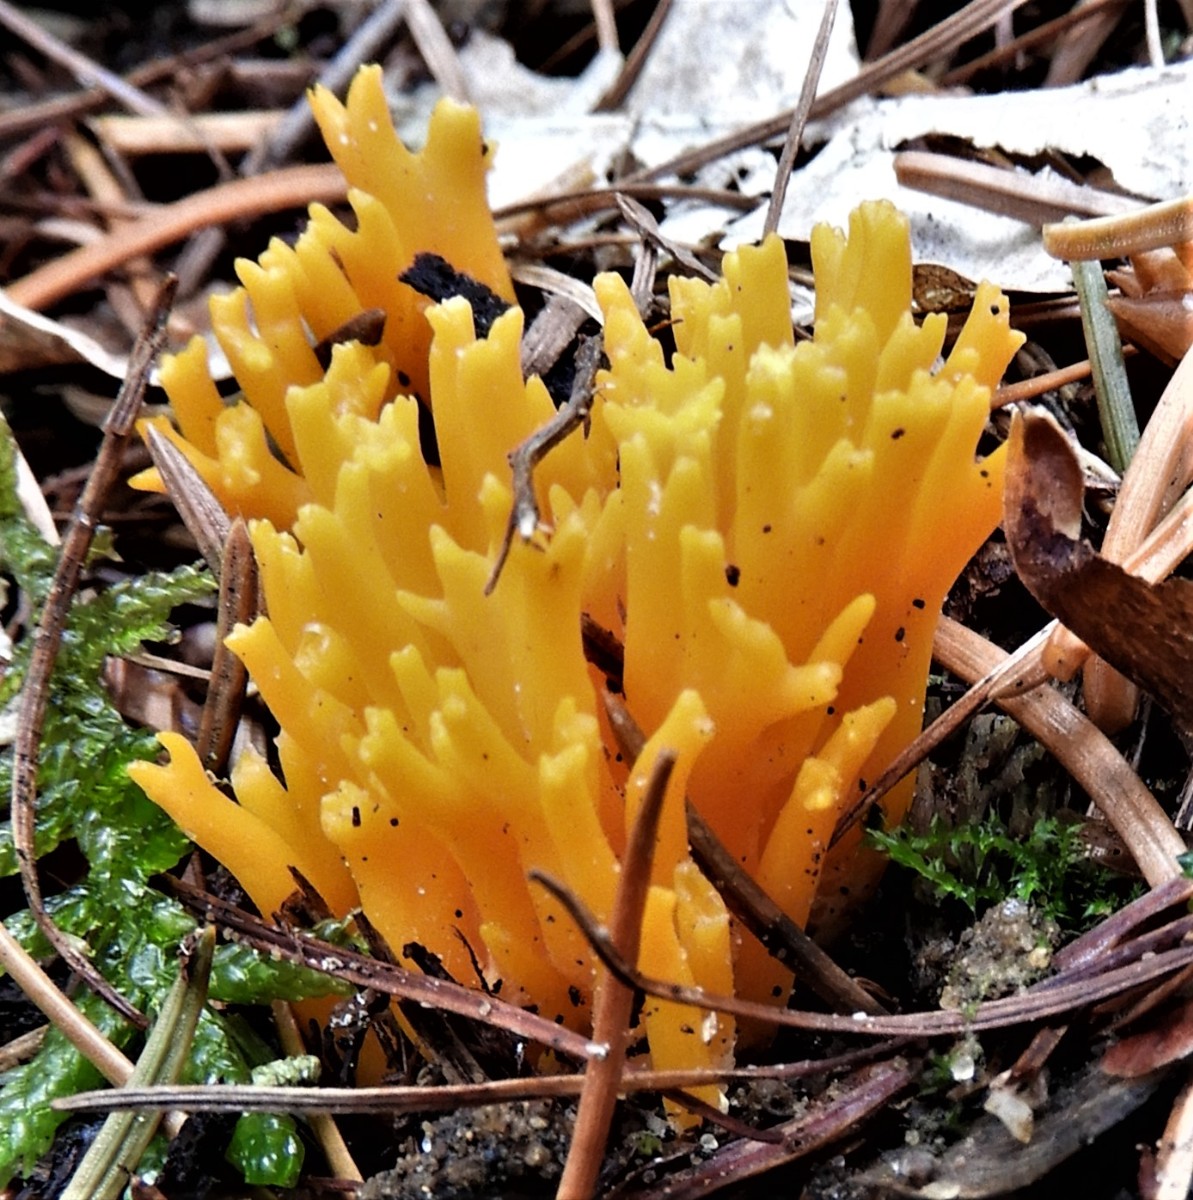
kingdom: Fungi
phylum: Basidiomycota
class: Dacrymycetes
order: Dacrymycetales
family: Dacrymycetaceae
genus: Calocera
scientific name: Calocera viscosa
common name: almindelig guldgaffel
